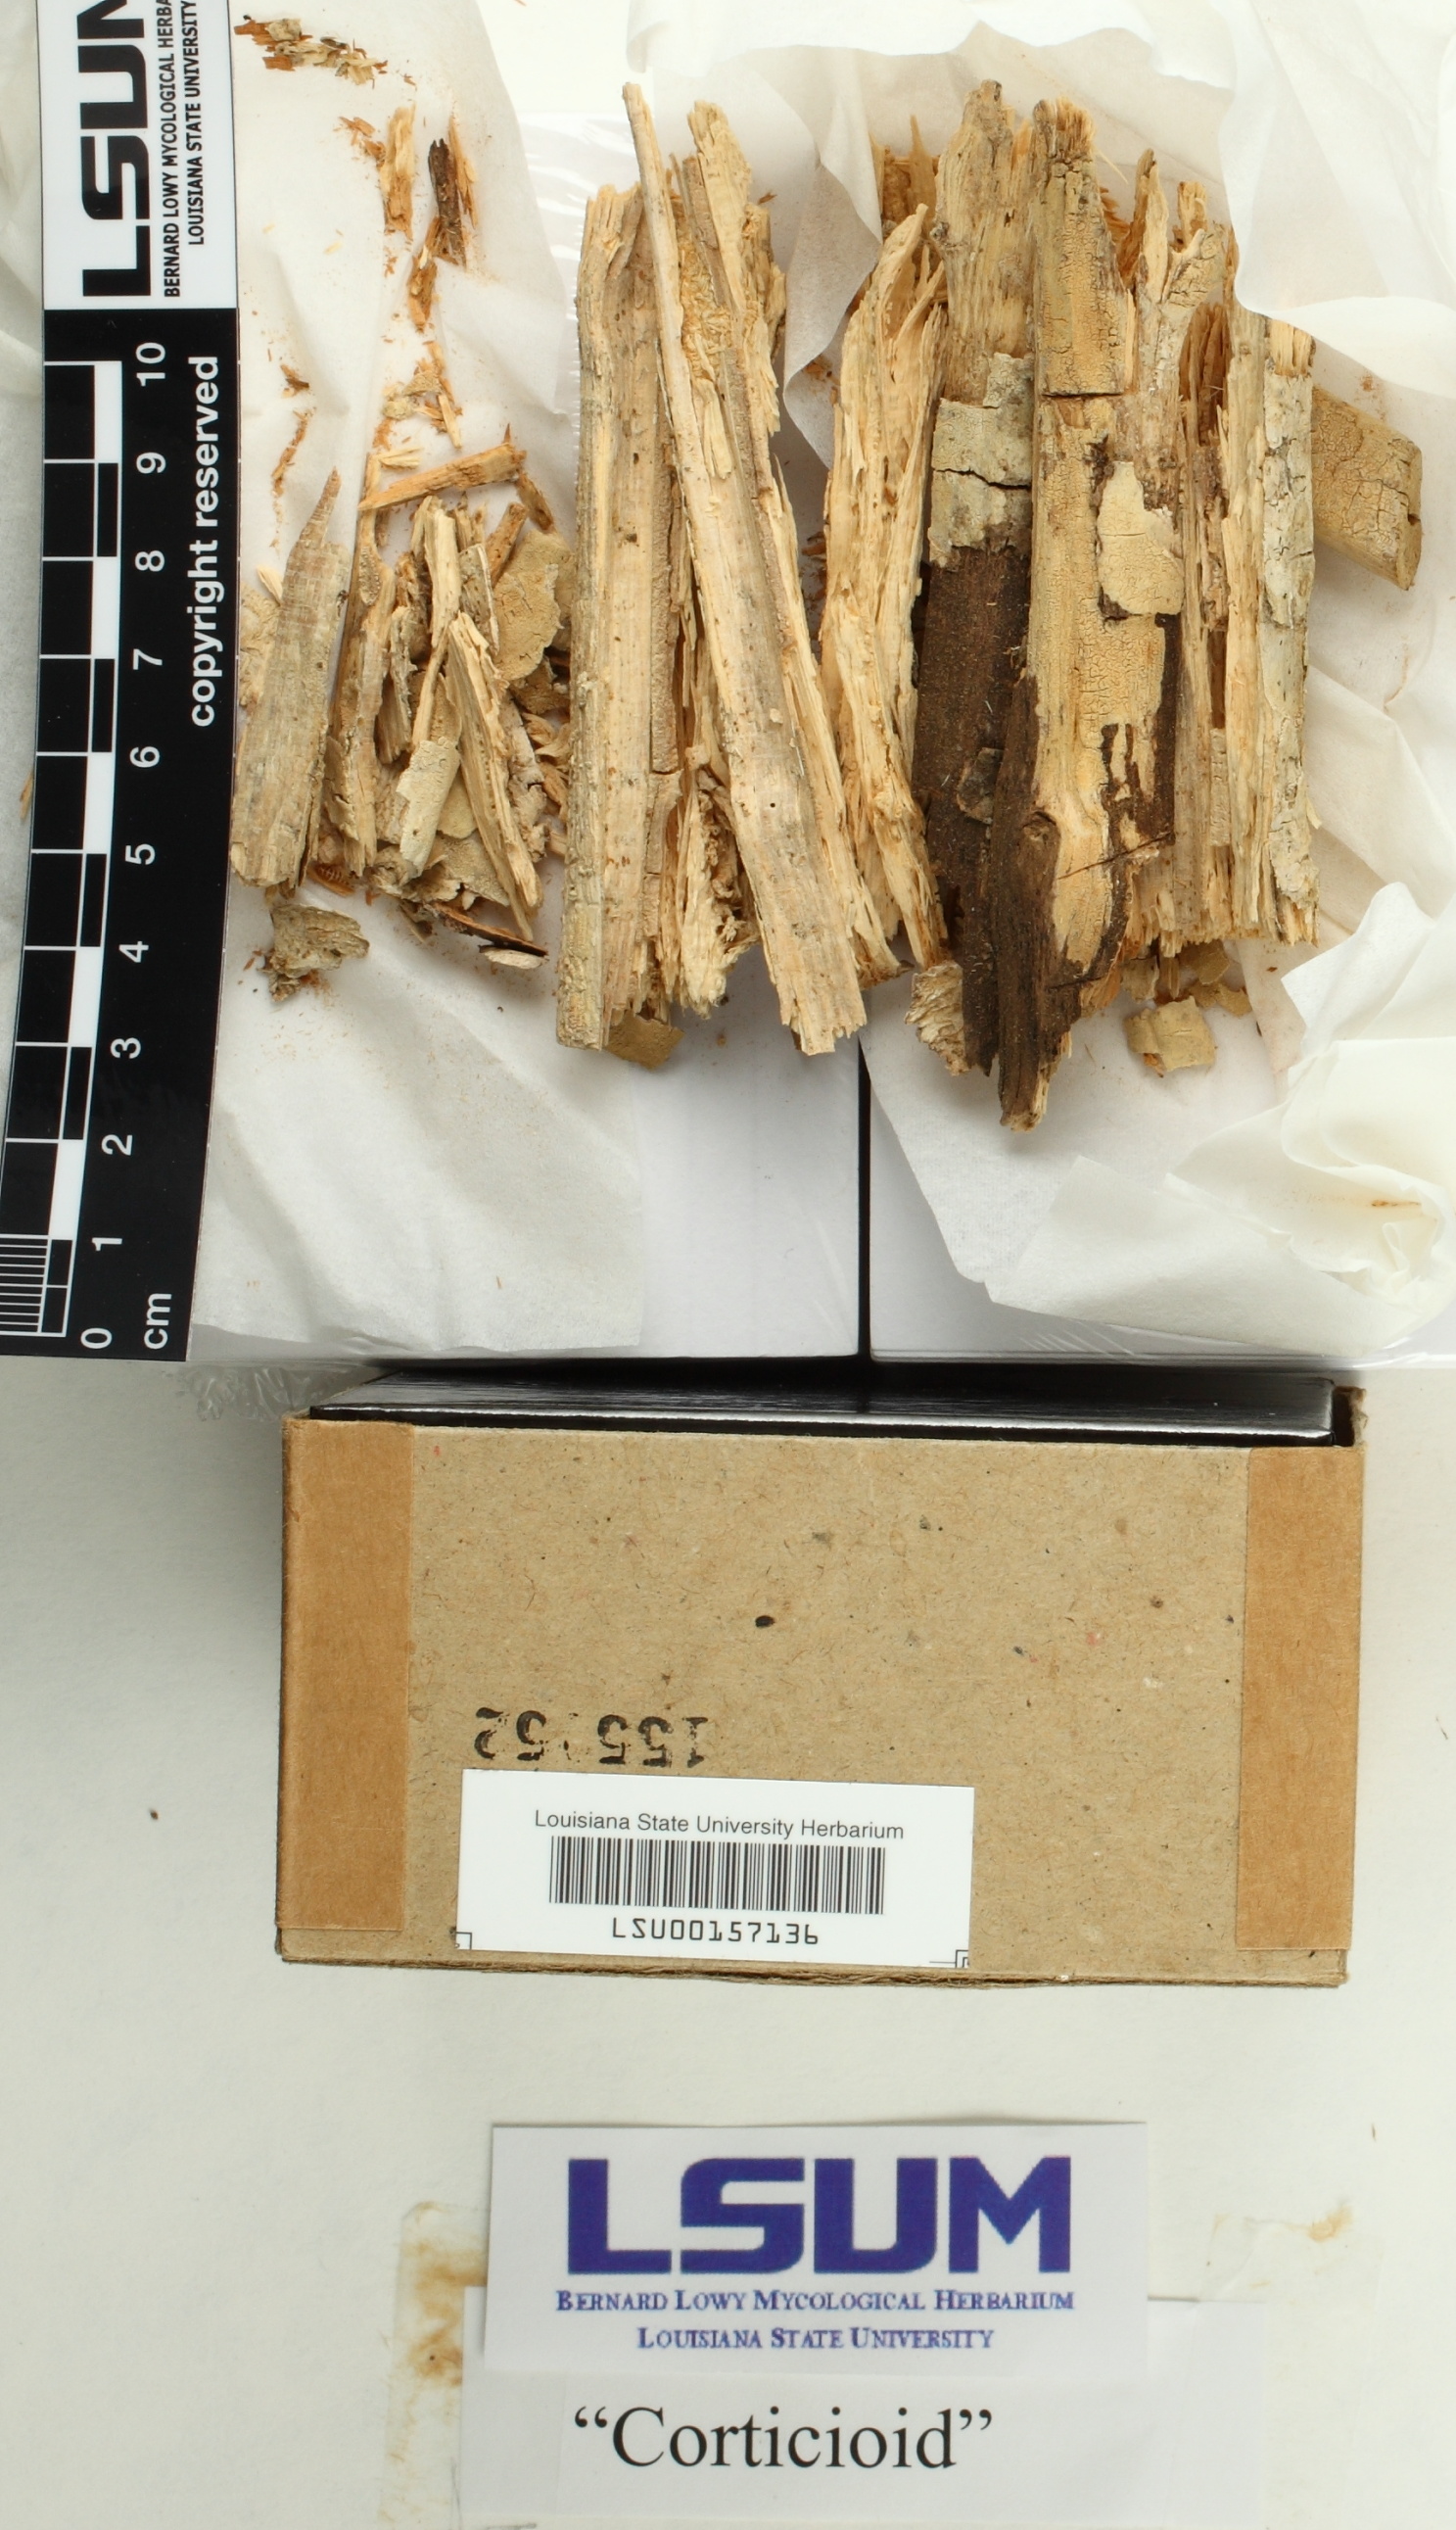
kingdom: Fungi
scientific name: Fungi
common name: Fungi
